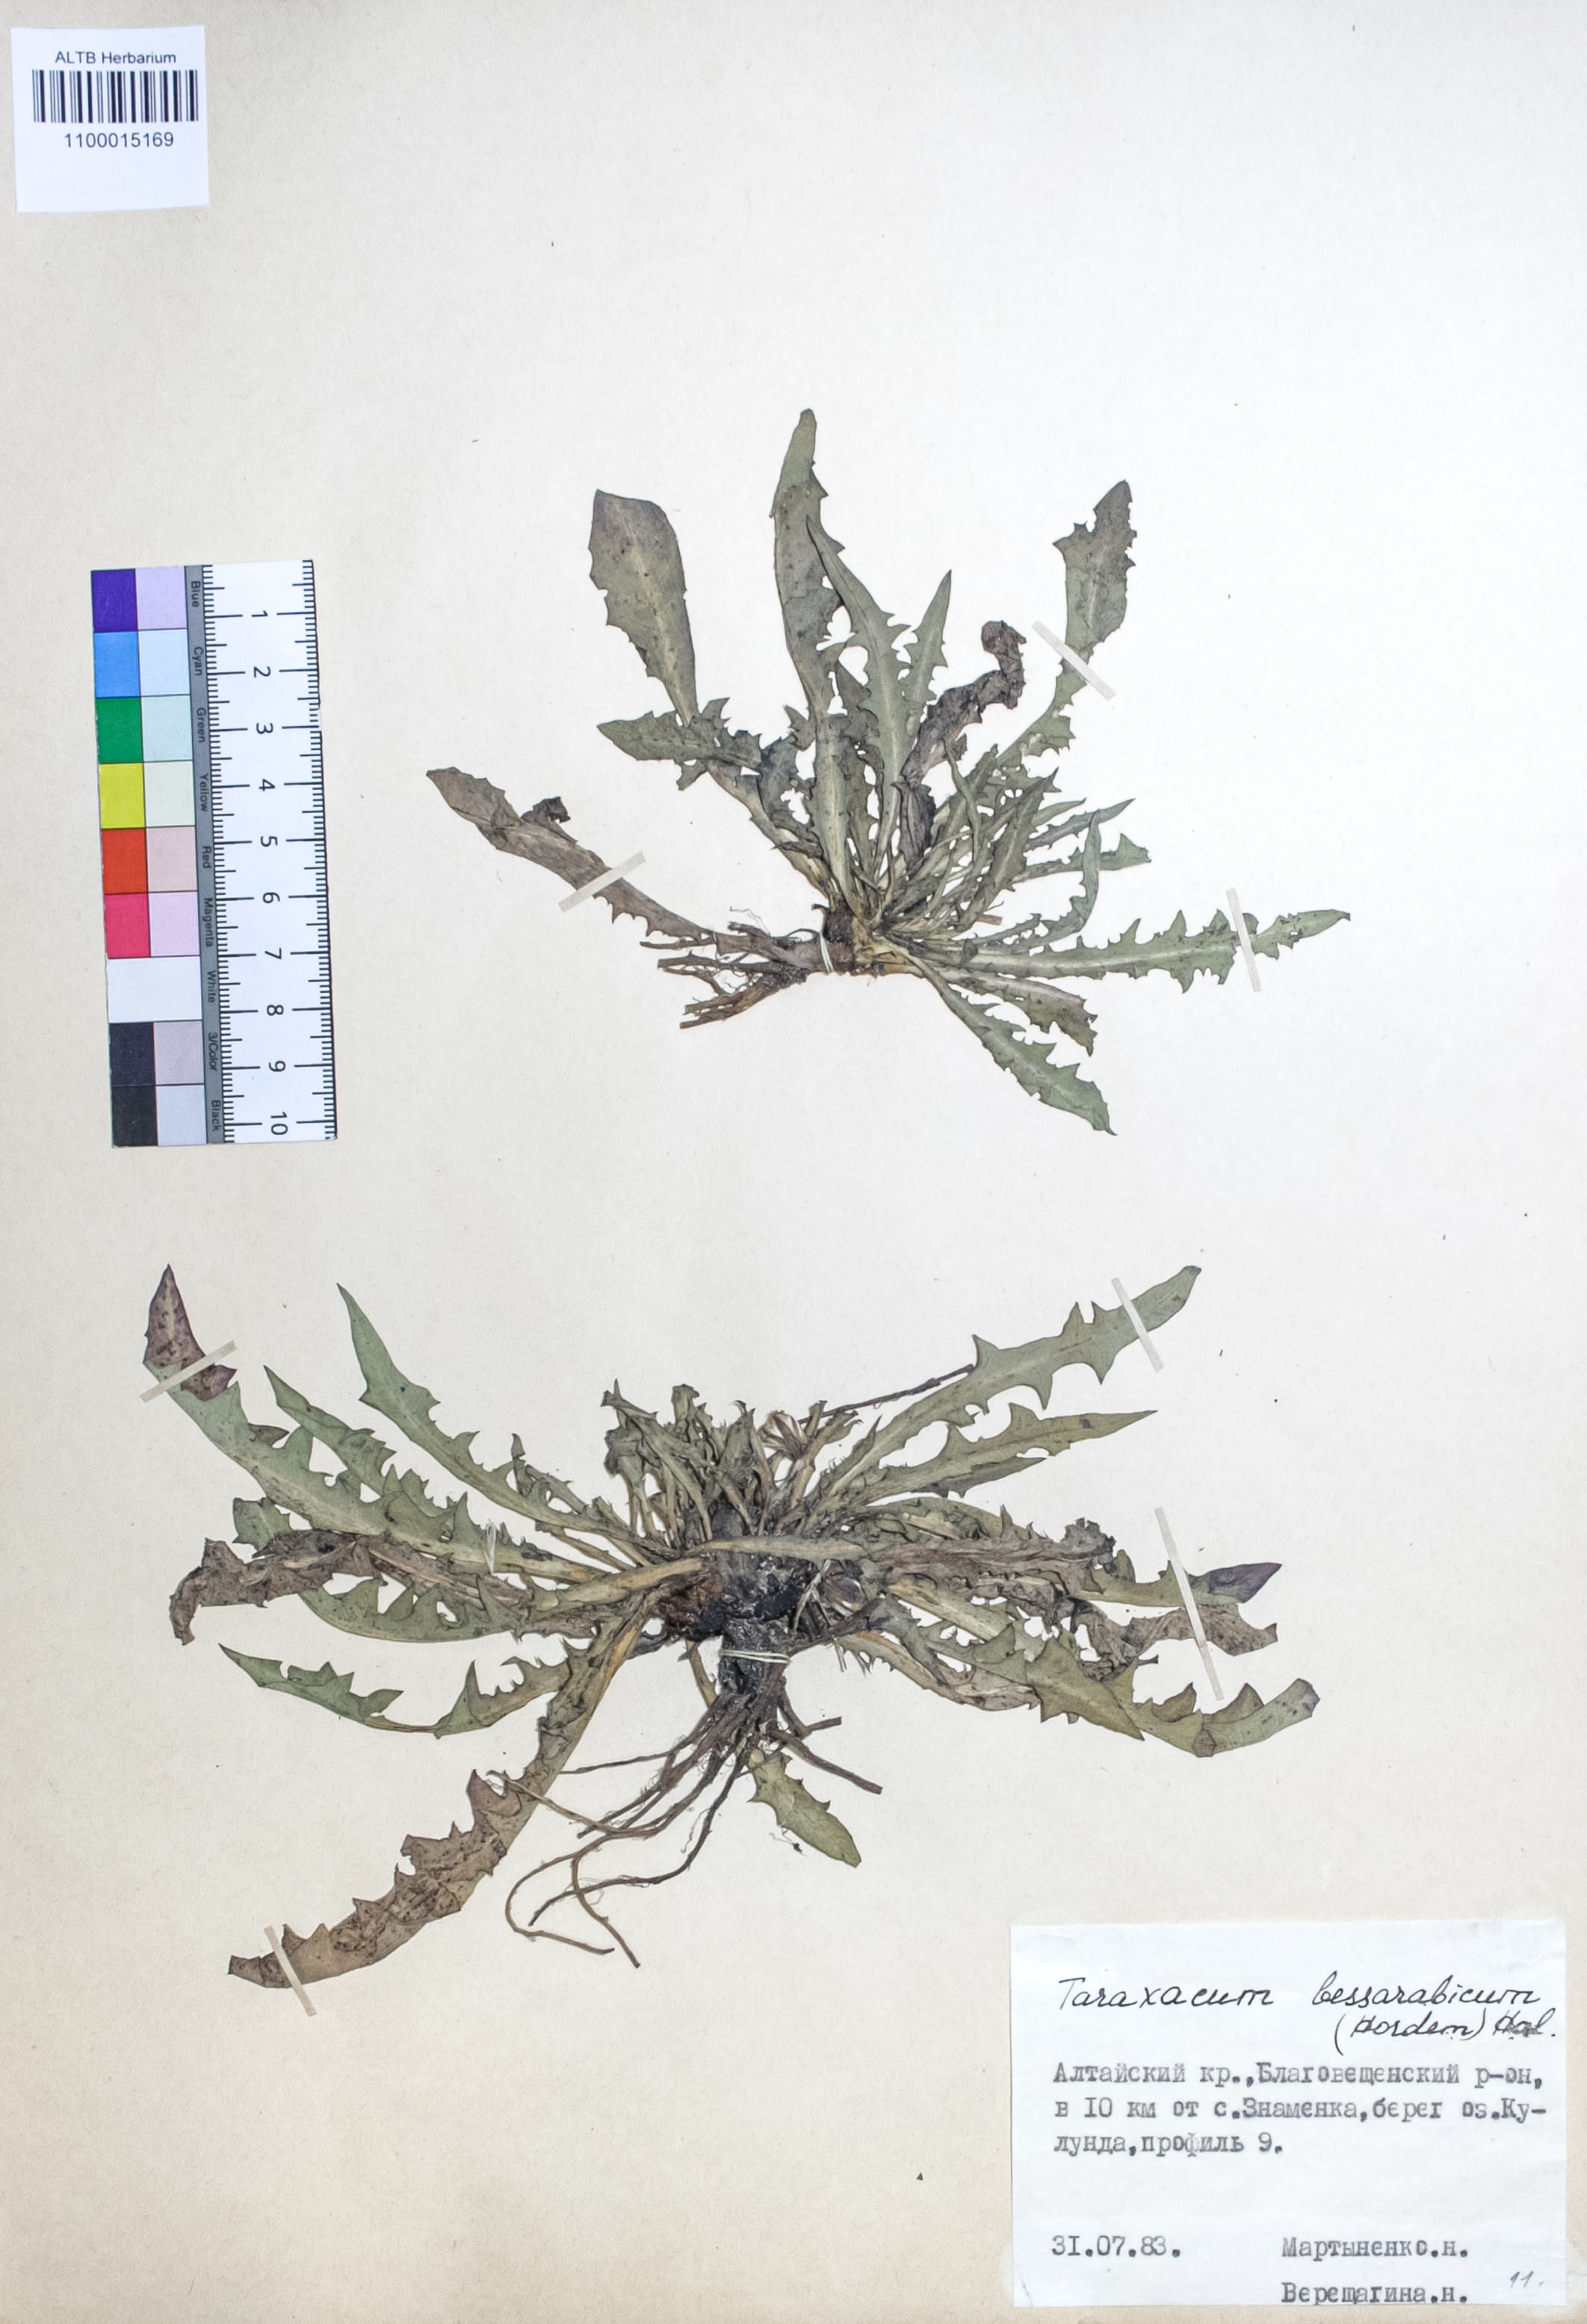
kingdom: Plantae
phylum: Tracheophyta
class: Magnoliopsida
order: Asterales
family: Asteraceae
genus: Taraxacum
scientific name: Taraxacum bessarabicum
